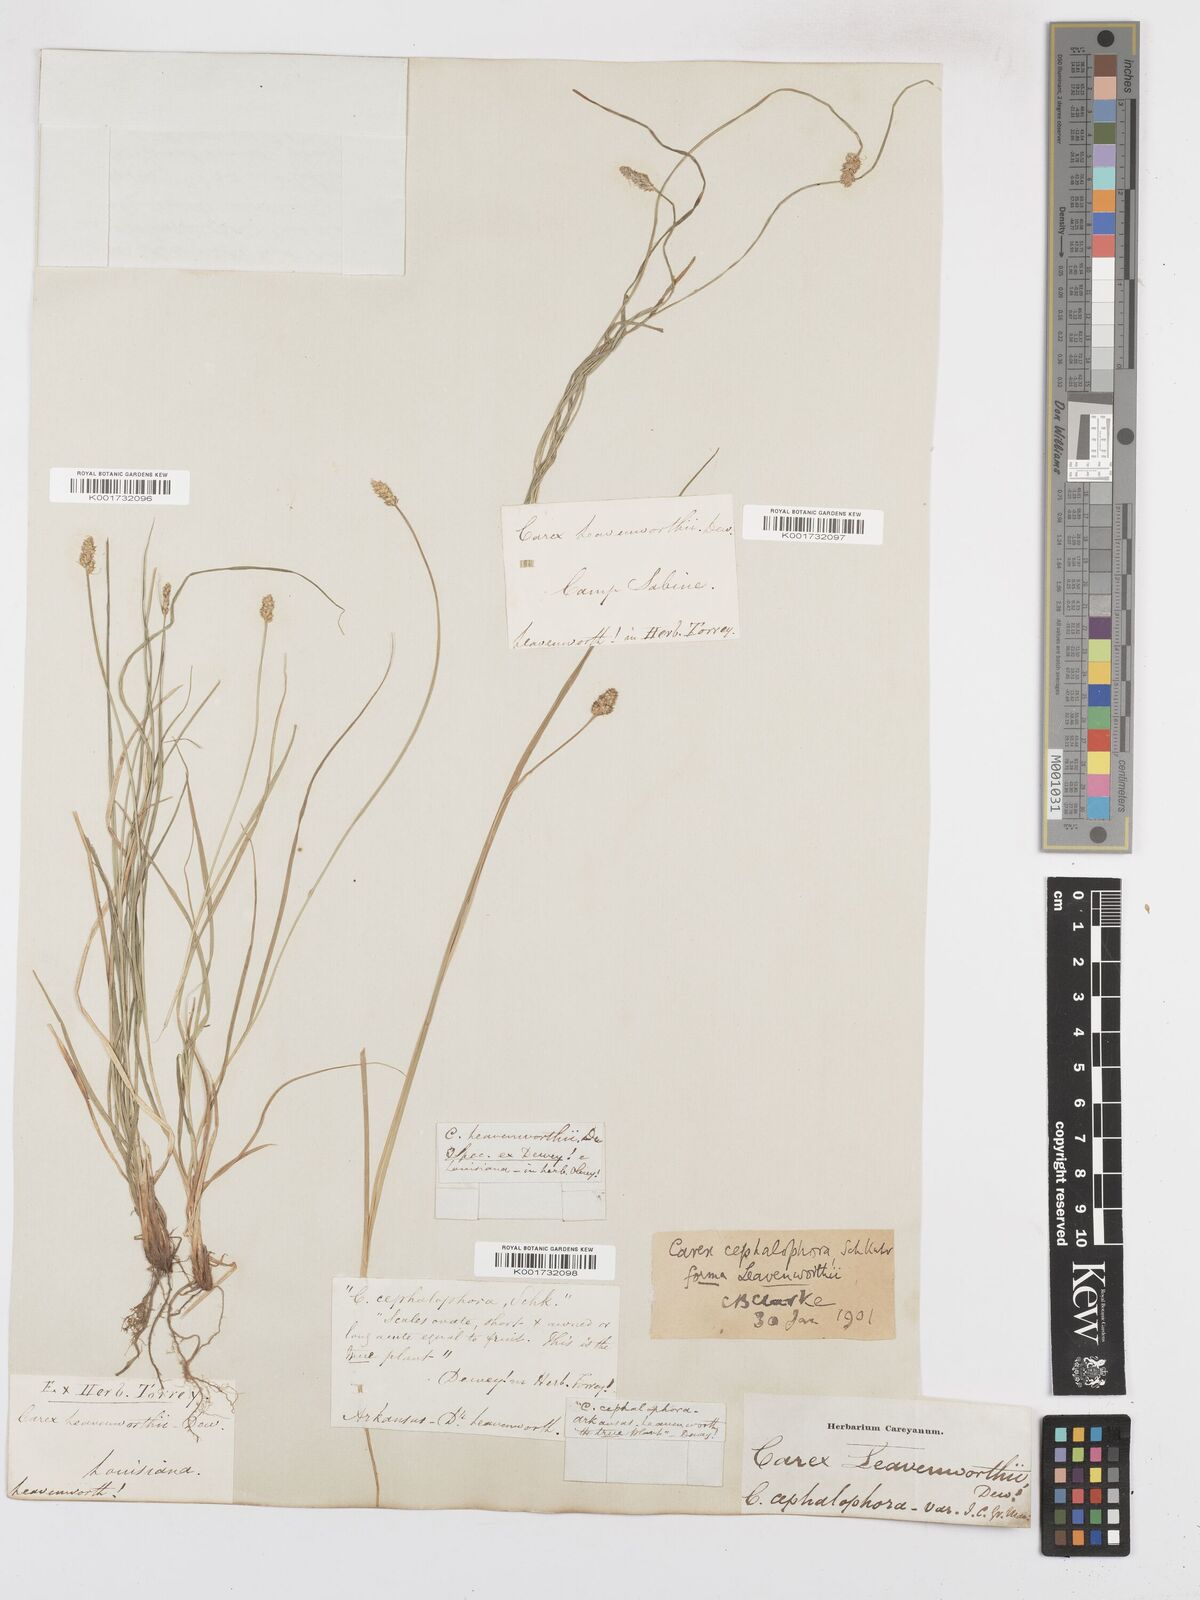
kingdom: Plantae
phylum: Tracheophyta
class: Liliopsida
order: Poales
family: Cyperaceae
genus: Carex
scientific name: Carex cephalophora
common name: Oval-headed sedge
